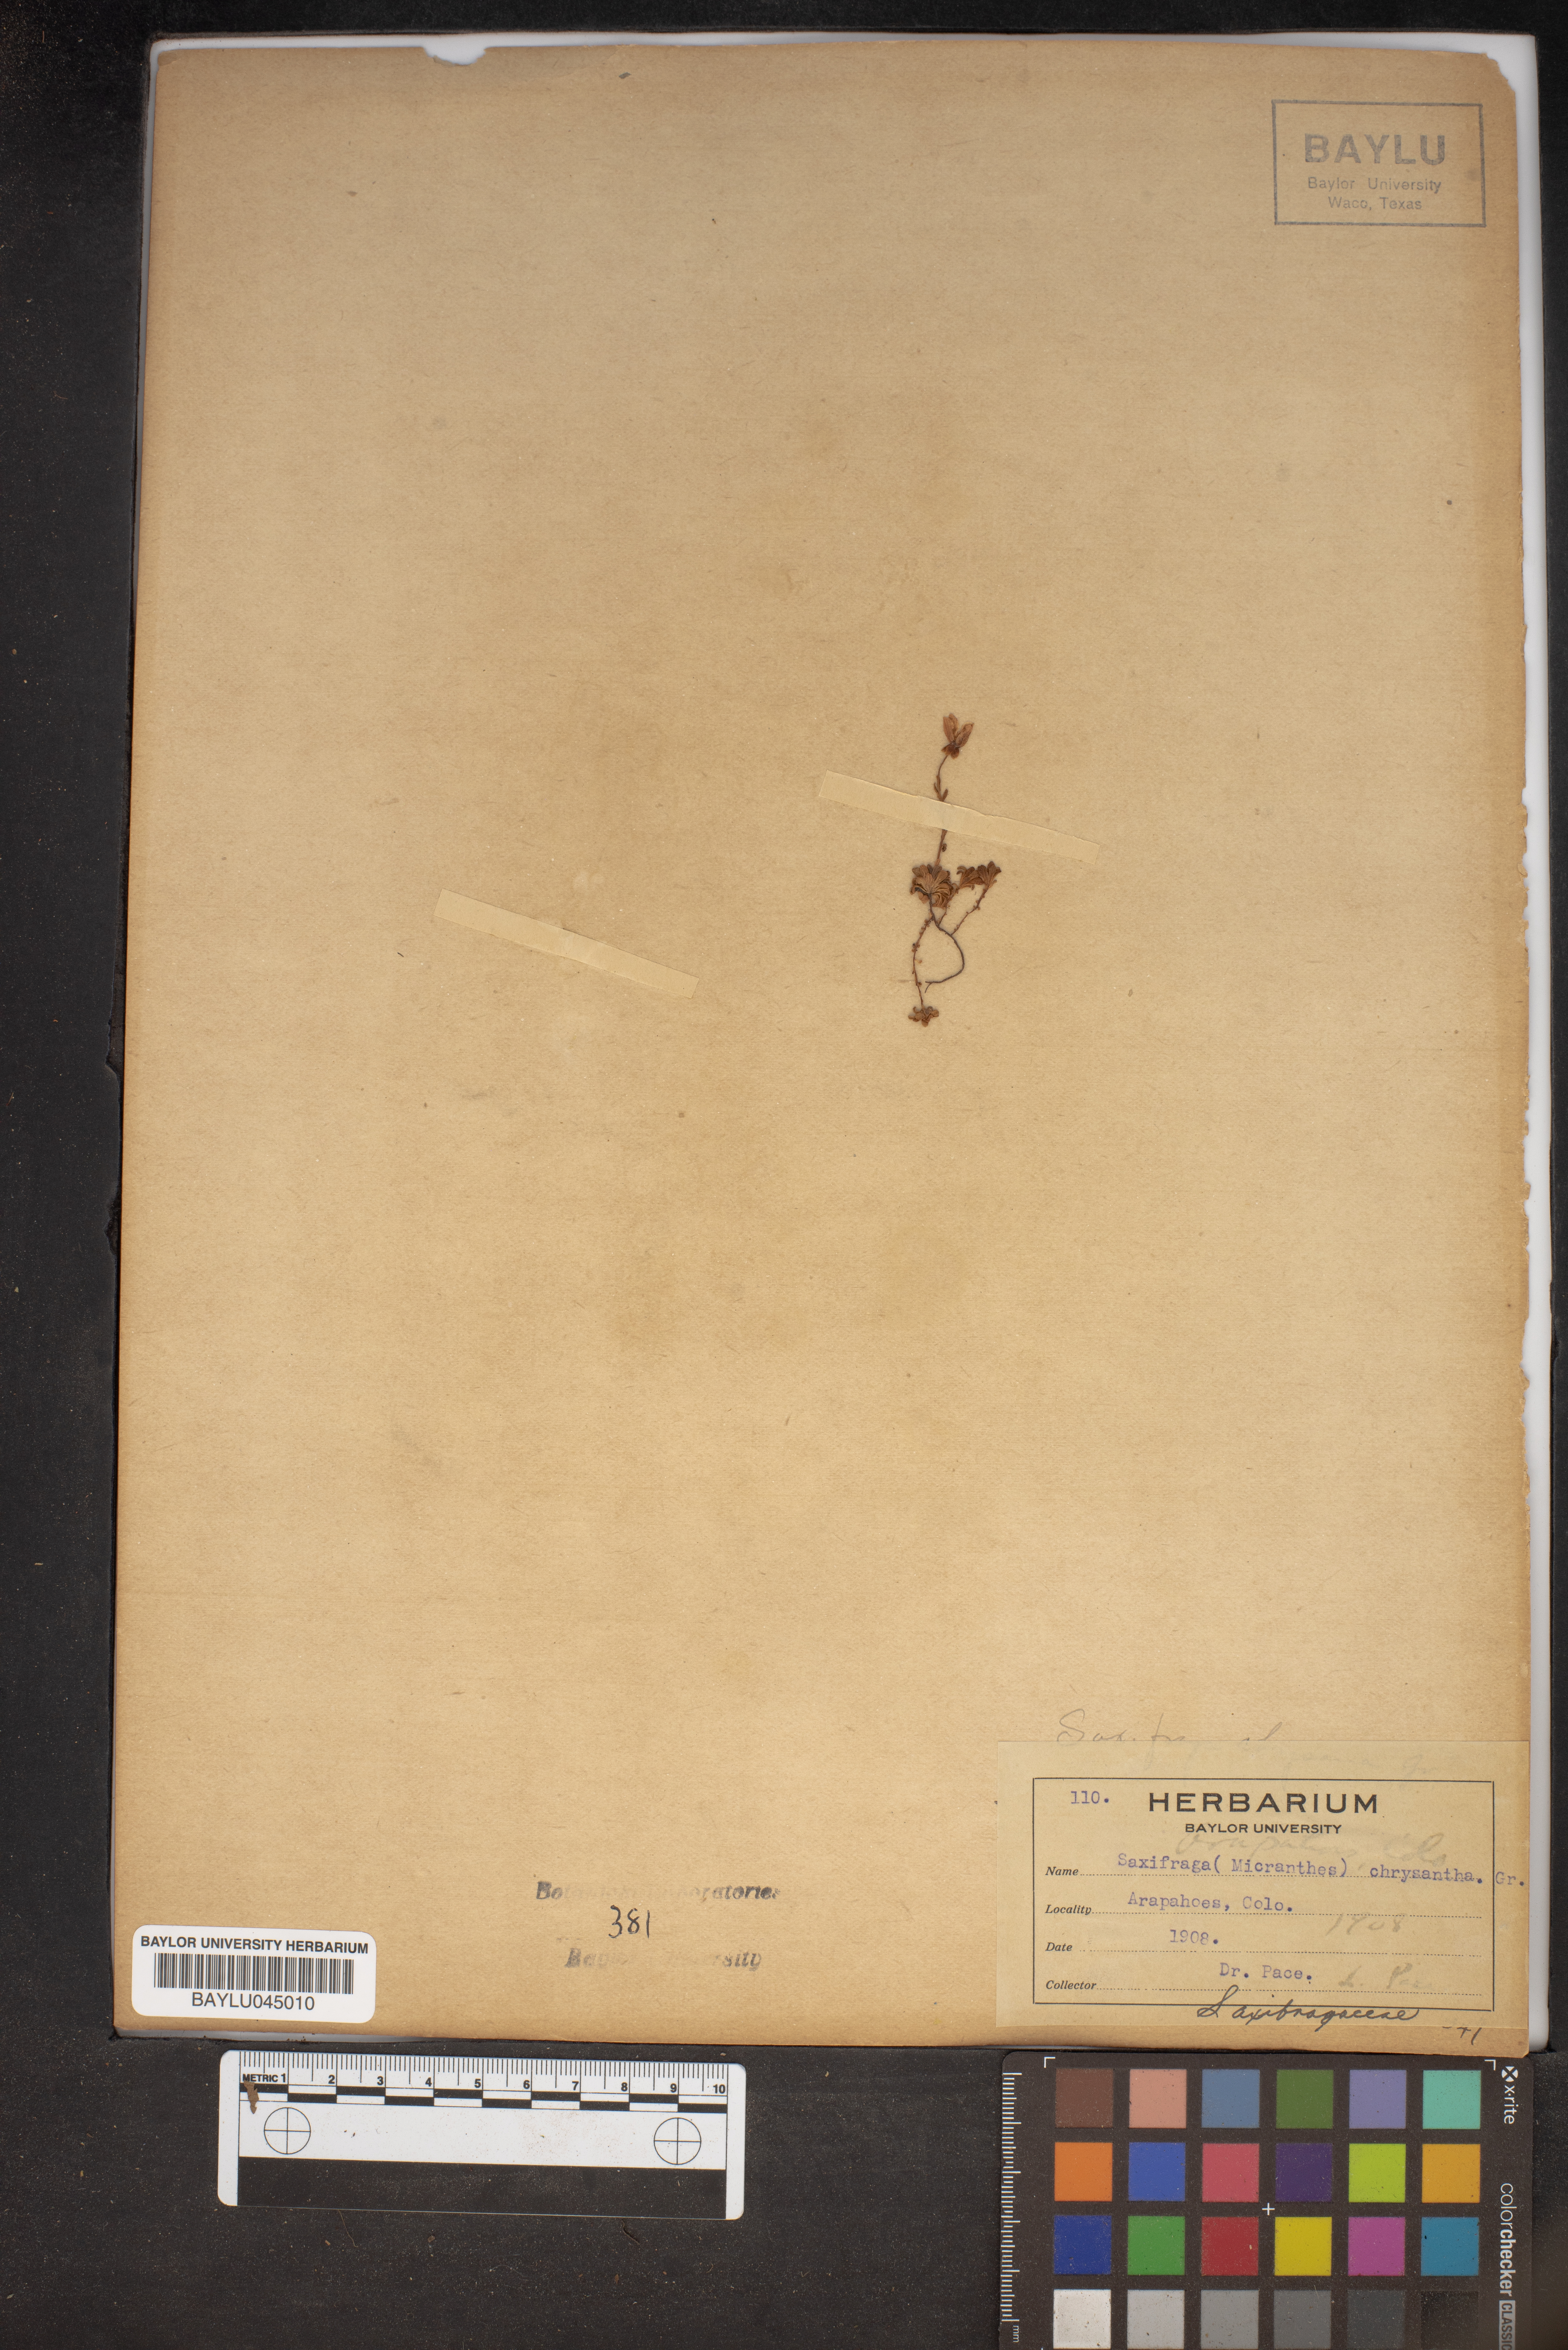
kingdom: Plantae
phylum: Tracheophyta
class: Magnoliopsida
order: Saxifragales
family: Saxifragaceae
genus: Saxifraga
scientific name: Saxifraga chrysantha
